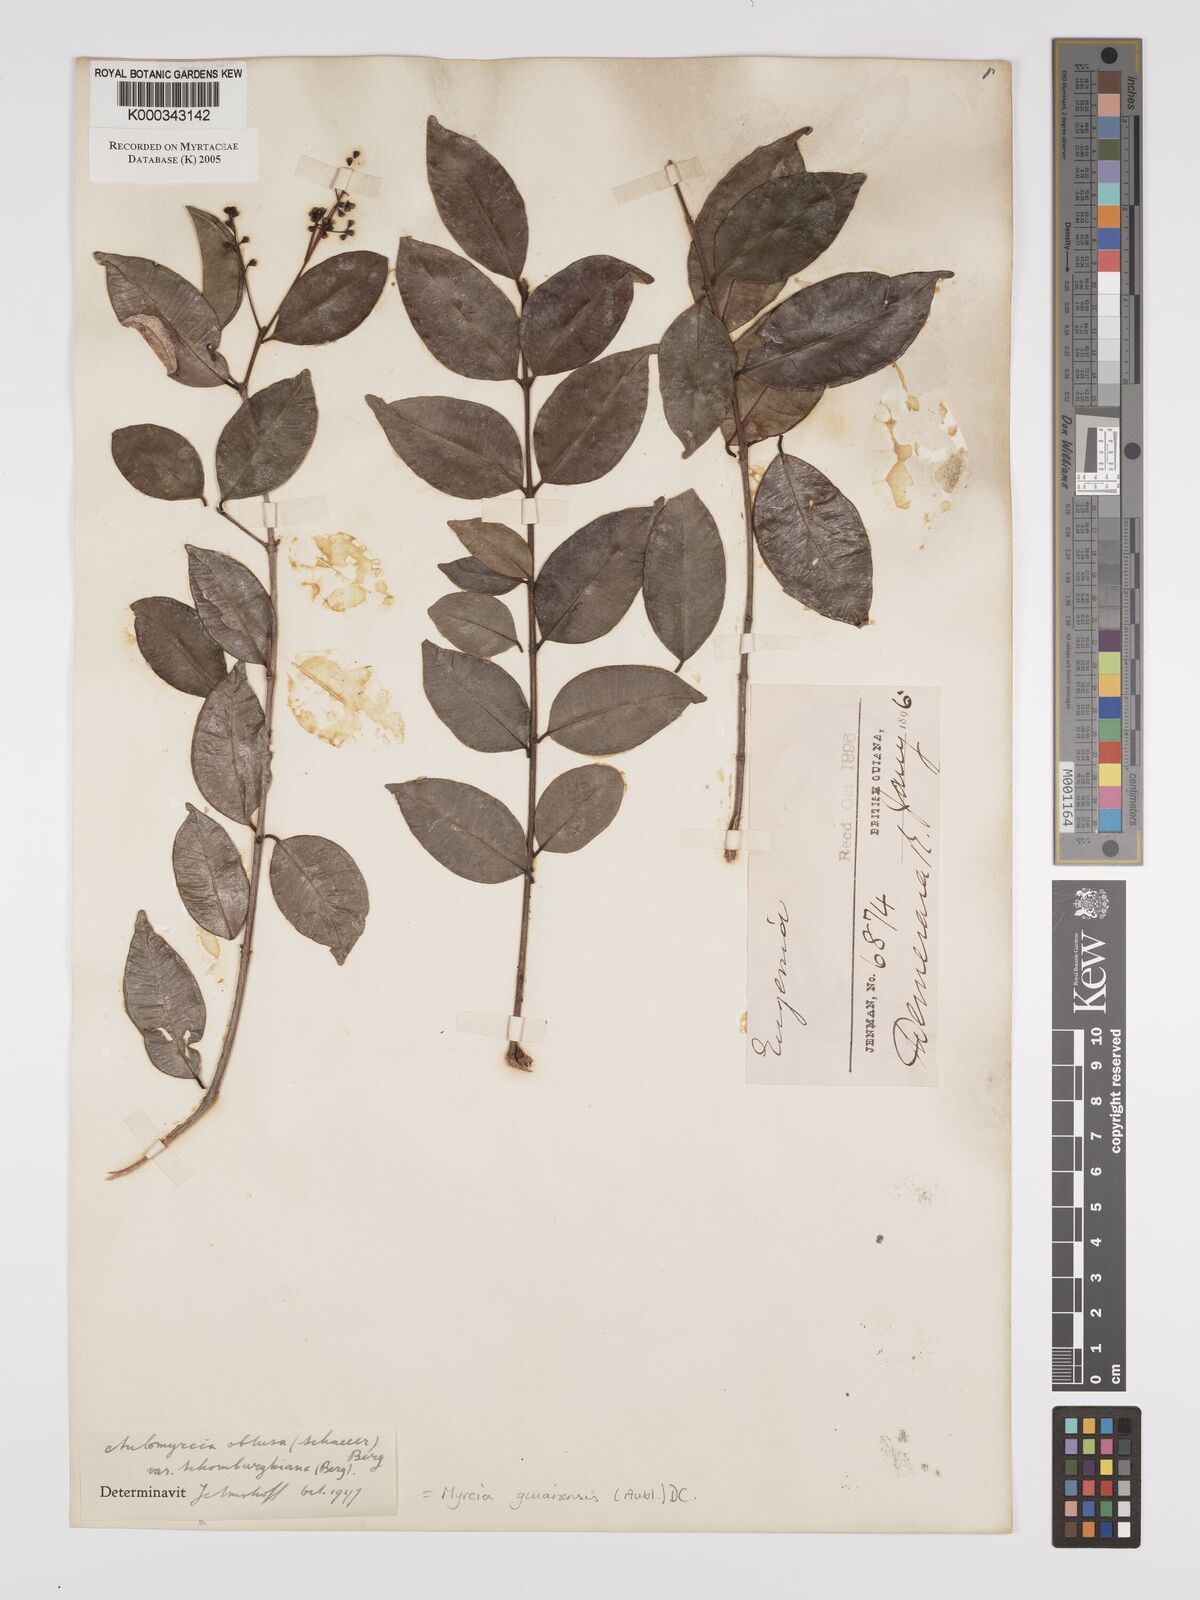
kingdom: Plantae
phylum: Tracheophyta
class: Magnoliopsida
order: Myrtales
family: Myrtaceae
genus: Myrcia
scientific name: Myrcia guianensis
